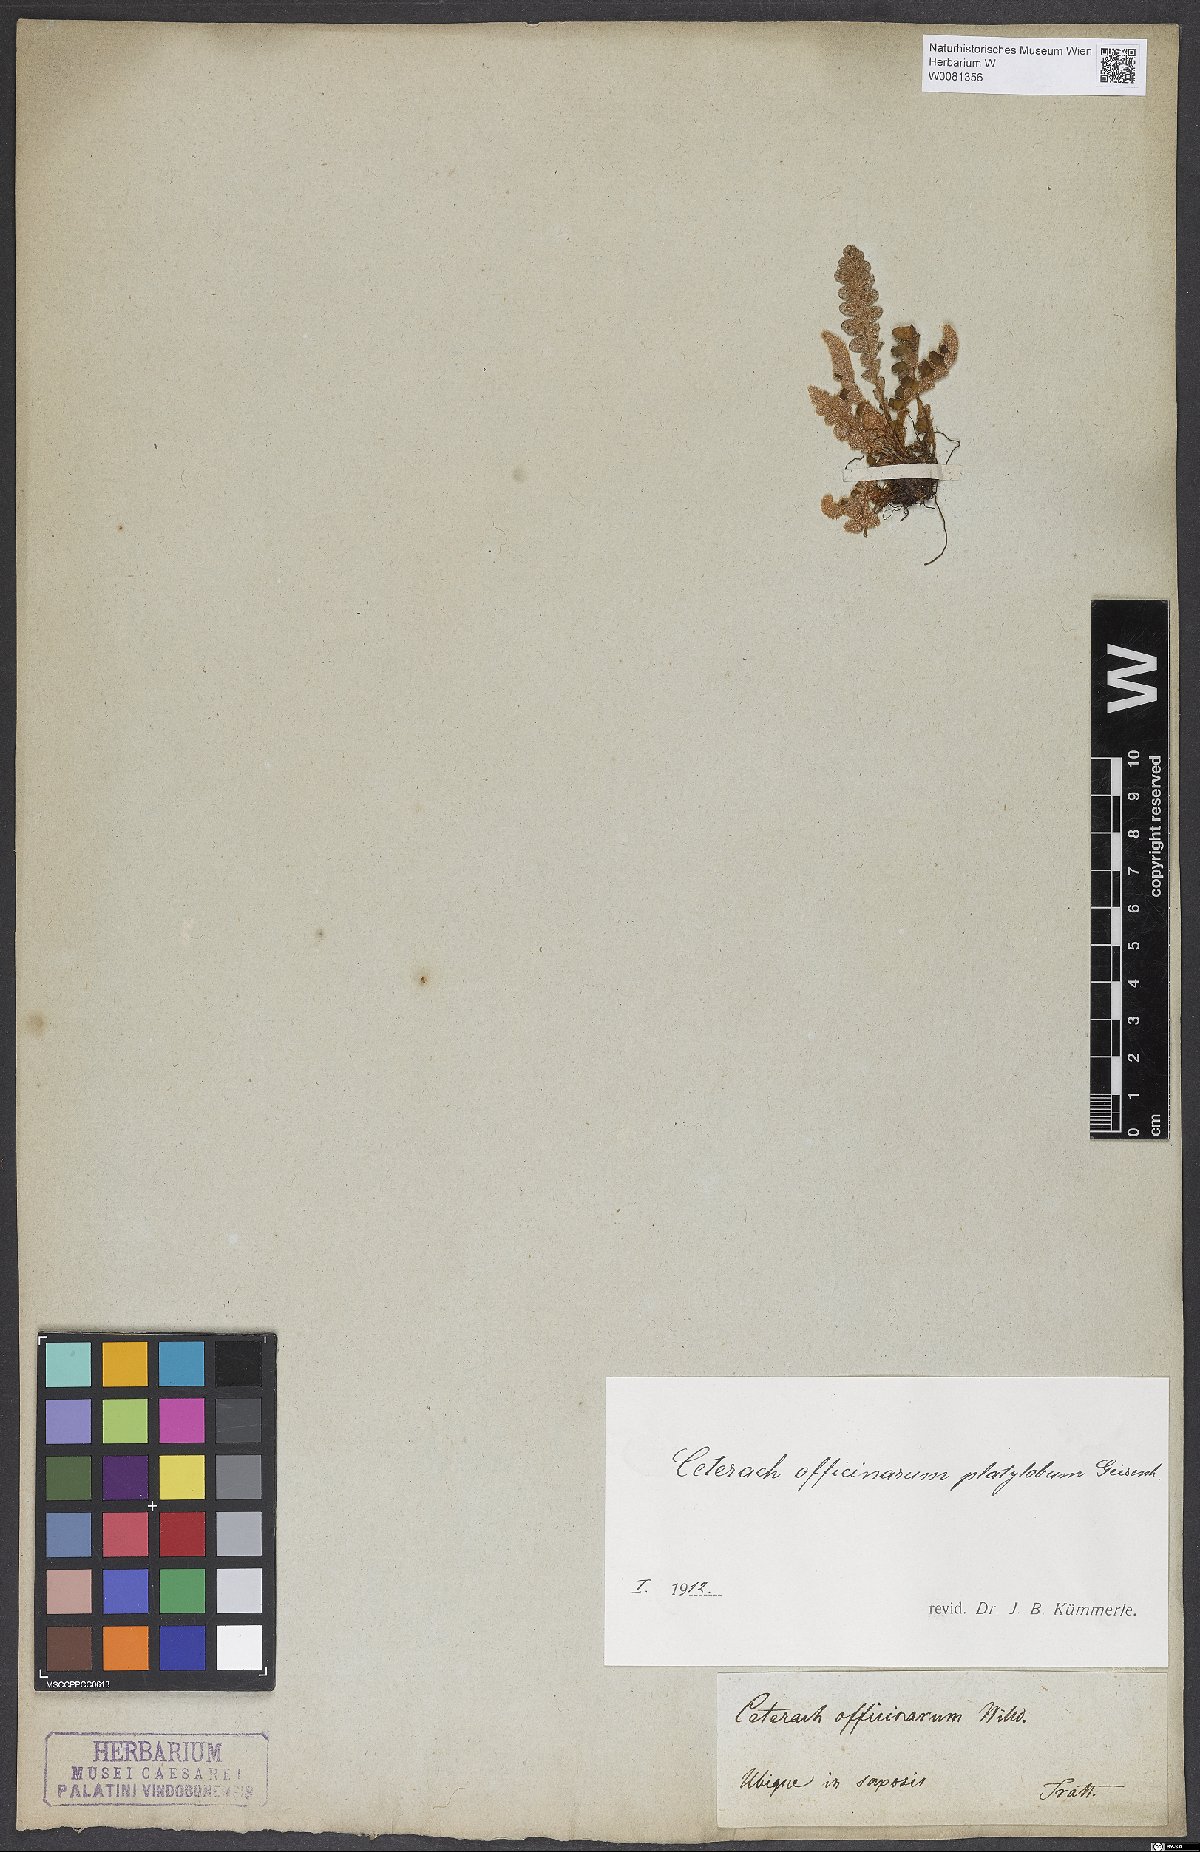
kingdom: Plantae
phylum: Tracheophyta
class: Polypodiopsida
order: Polypodiales
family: Aspleniaceae
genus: Asplenium
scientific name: Asplenium ceterach
